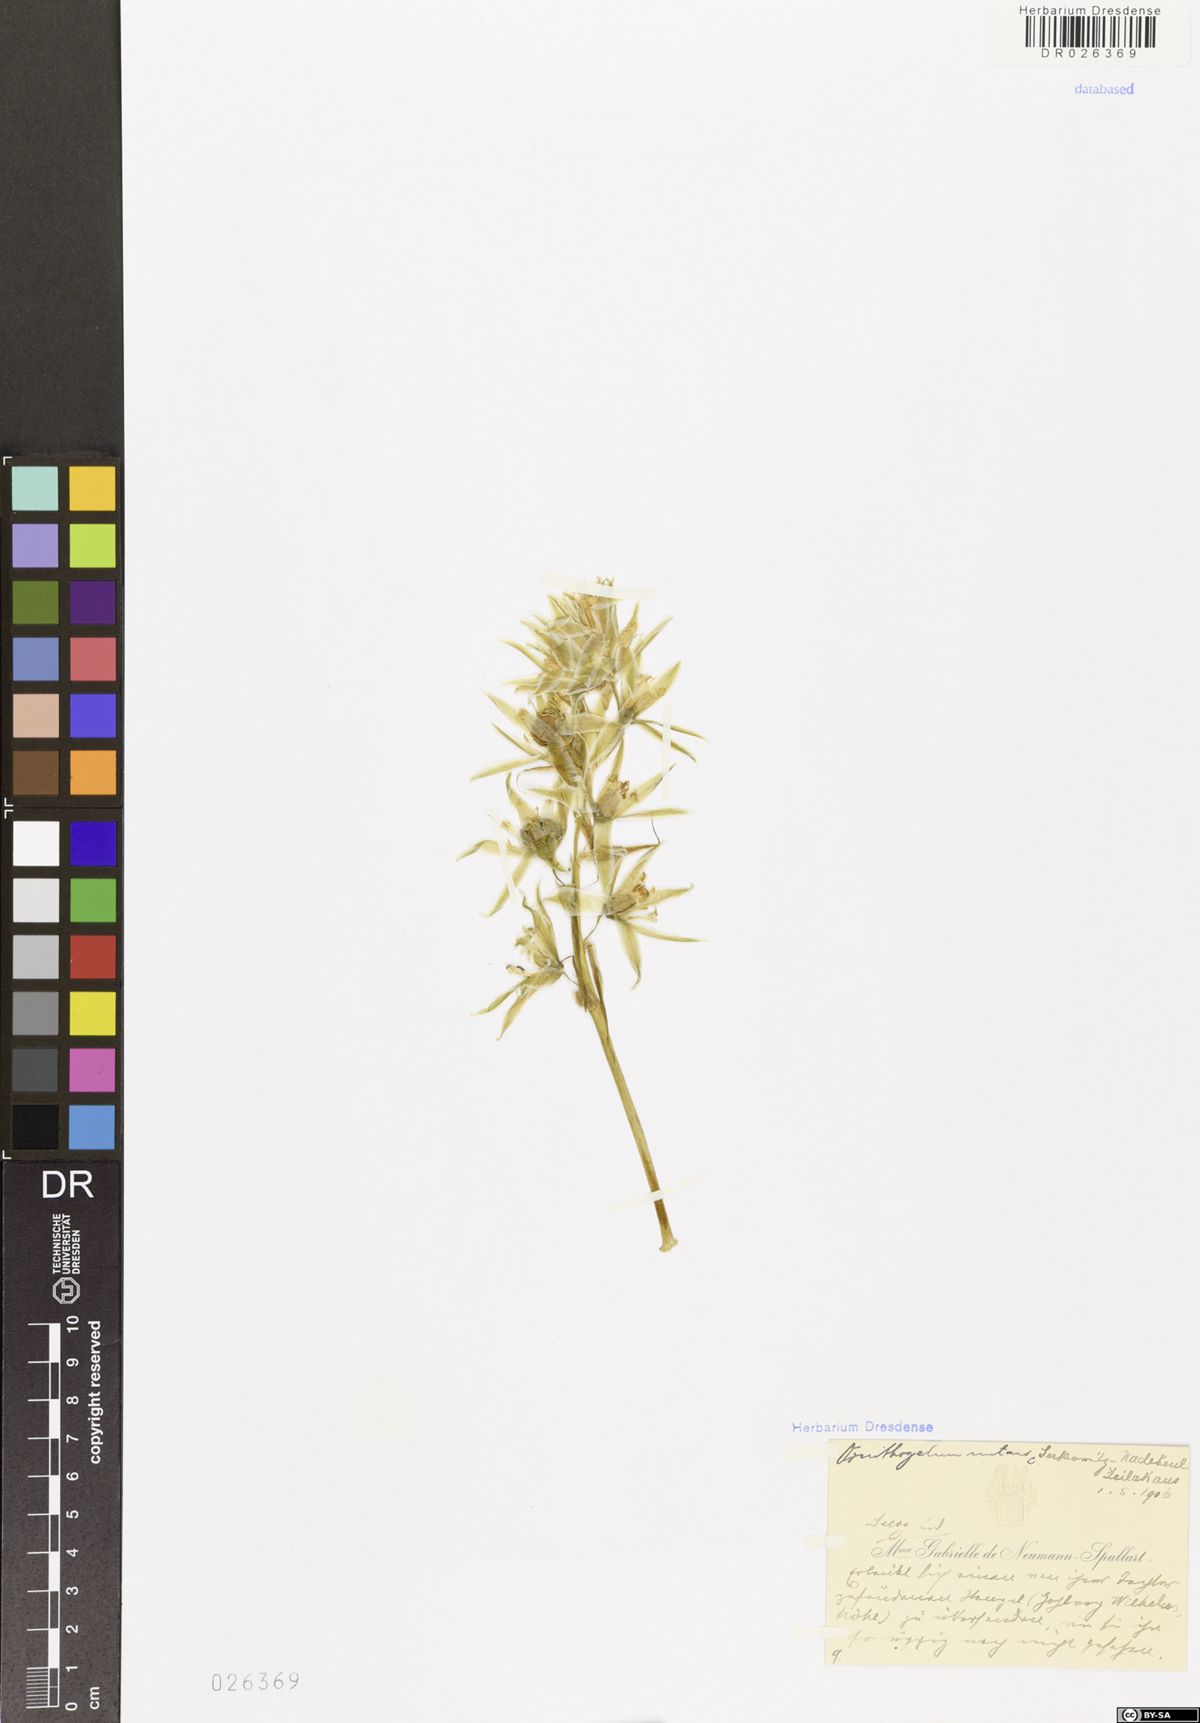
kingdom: Plantae
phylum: Tracheophyta
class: Liliopsida
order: Asparagales
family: Asparagaceae
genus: Ornithogalum
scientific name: Ornithogalum nutans
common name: Drooping star-of-bethlehem
